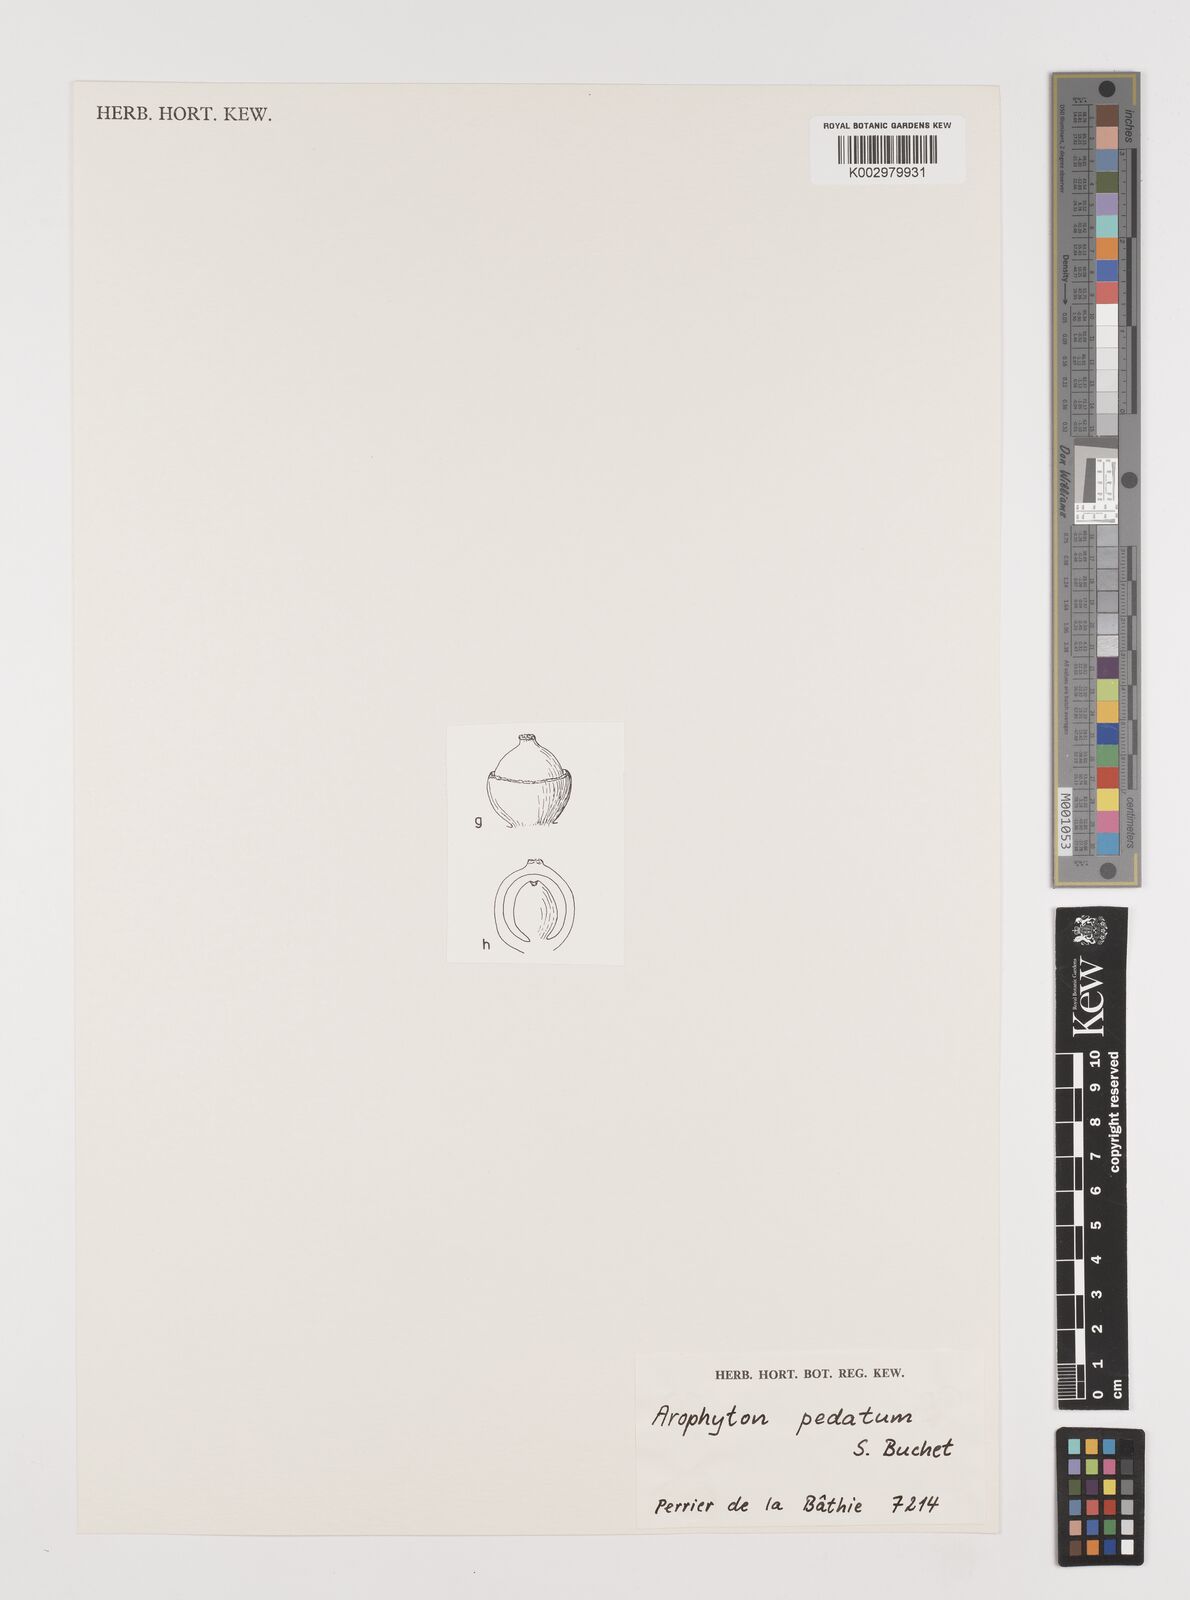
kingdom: Plantae
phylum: Tracheophyta
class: Liliopsida
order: Alismatales
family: Araceae
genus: Arophyton
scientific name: Arophyton pedatum
